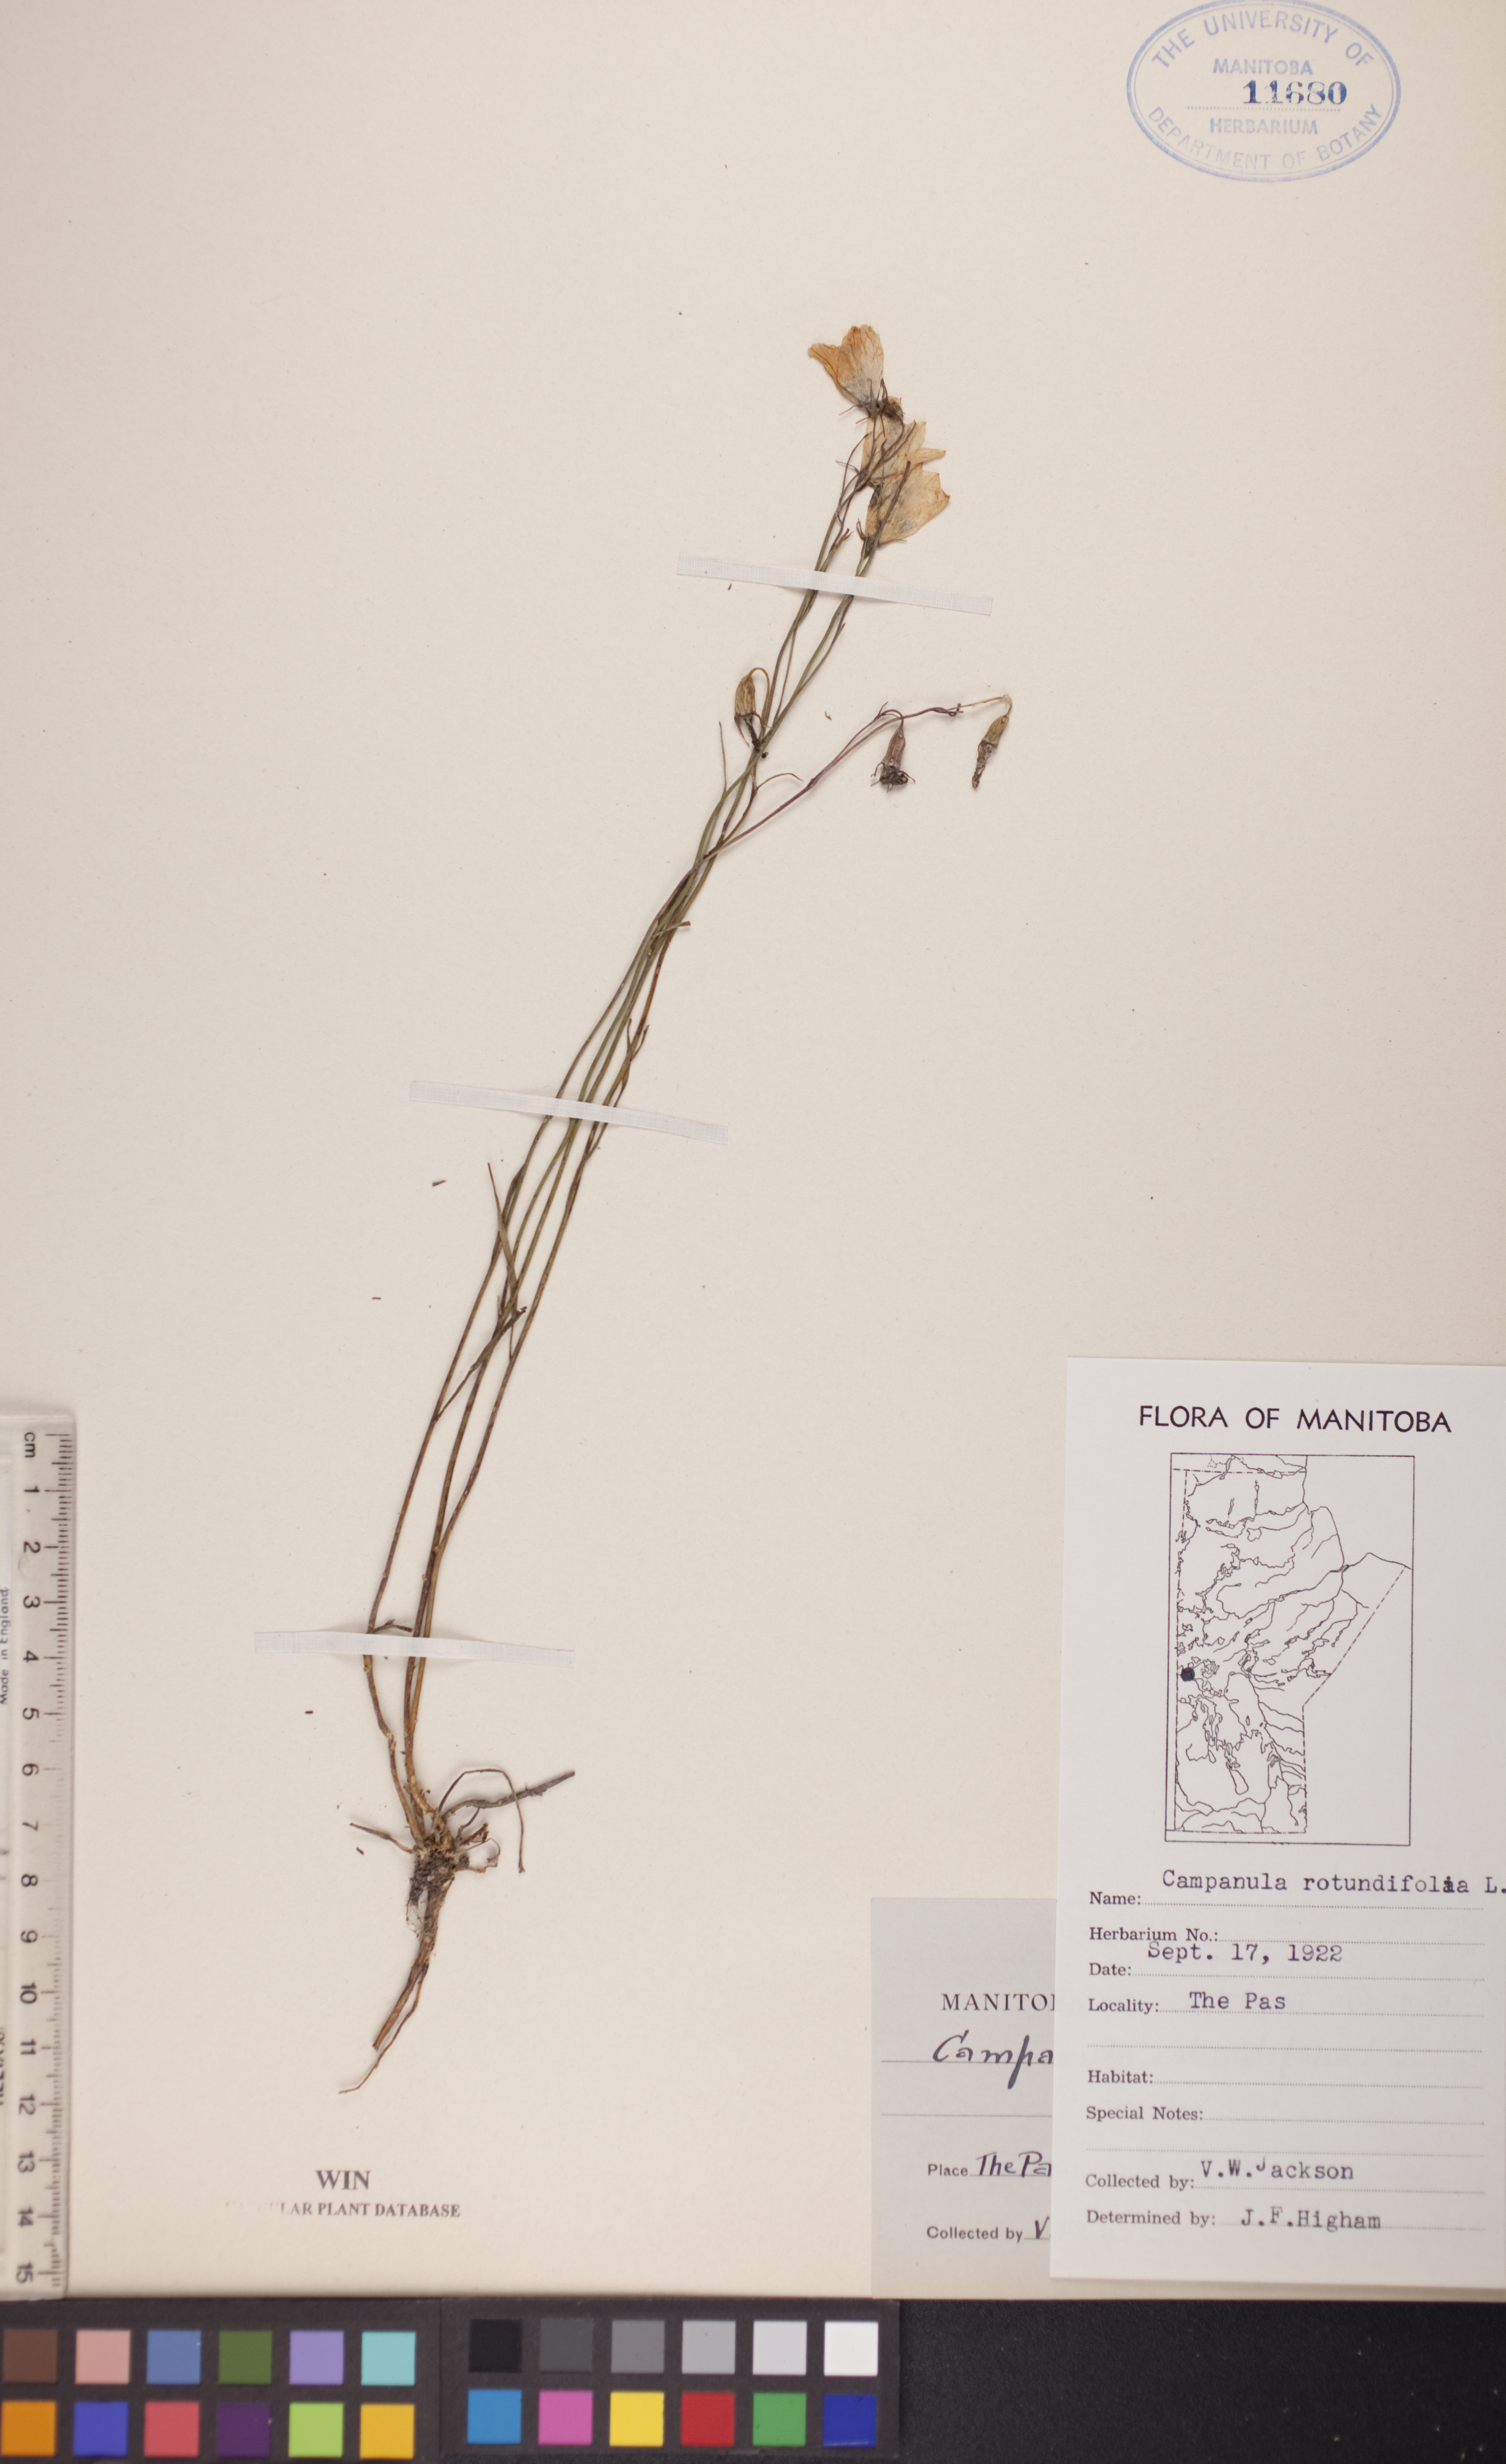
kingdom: Plantae
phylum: Tracheophyta
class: Magnoliopsida
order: Asterales
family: Campanulaceae
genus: Campanula
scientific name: Campanula rotundifolia
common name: Harebell
